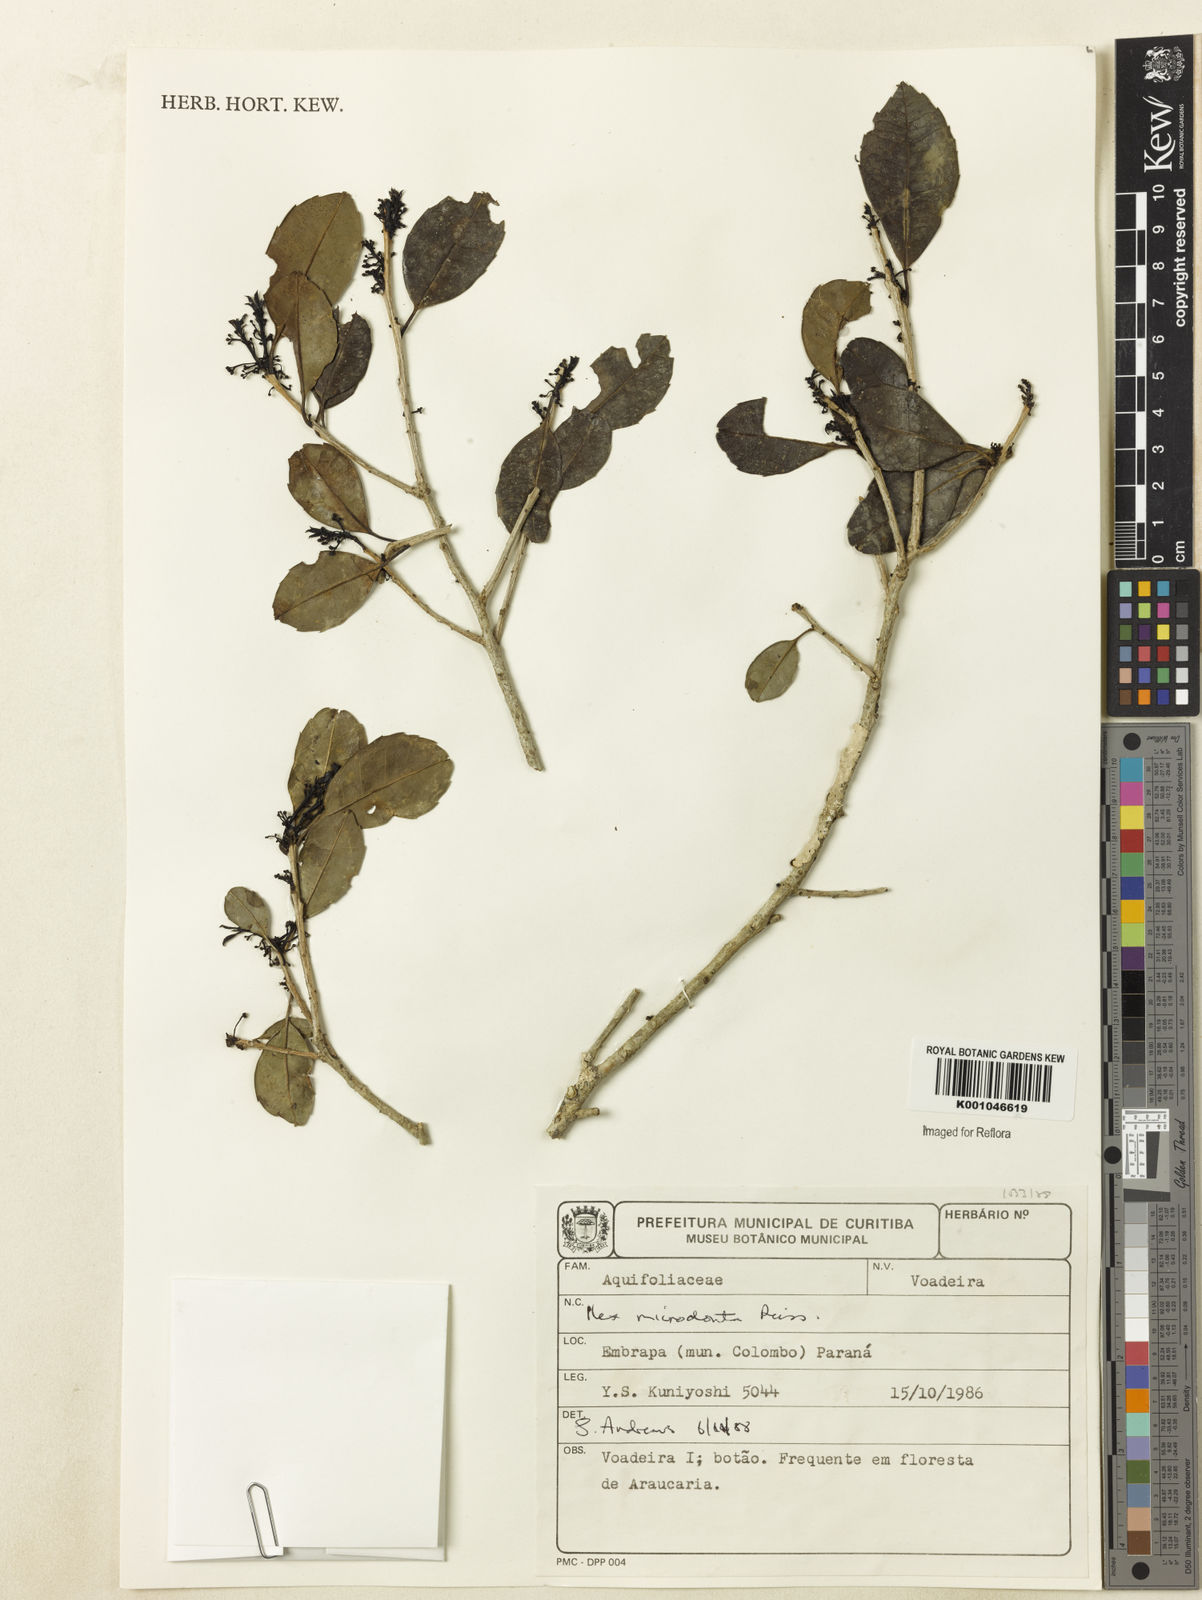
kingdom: Plantae
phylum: Tracheophyta
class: Magnoliopsida
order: Aquifoliales
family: Aquifoliaceae
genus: Ilex
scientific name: Ilex microdonta
